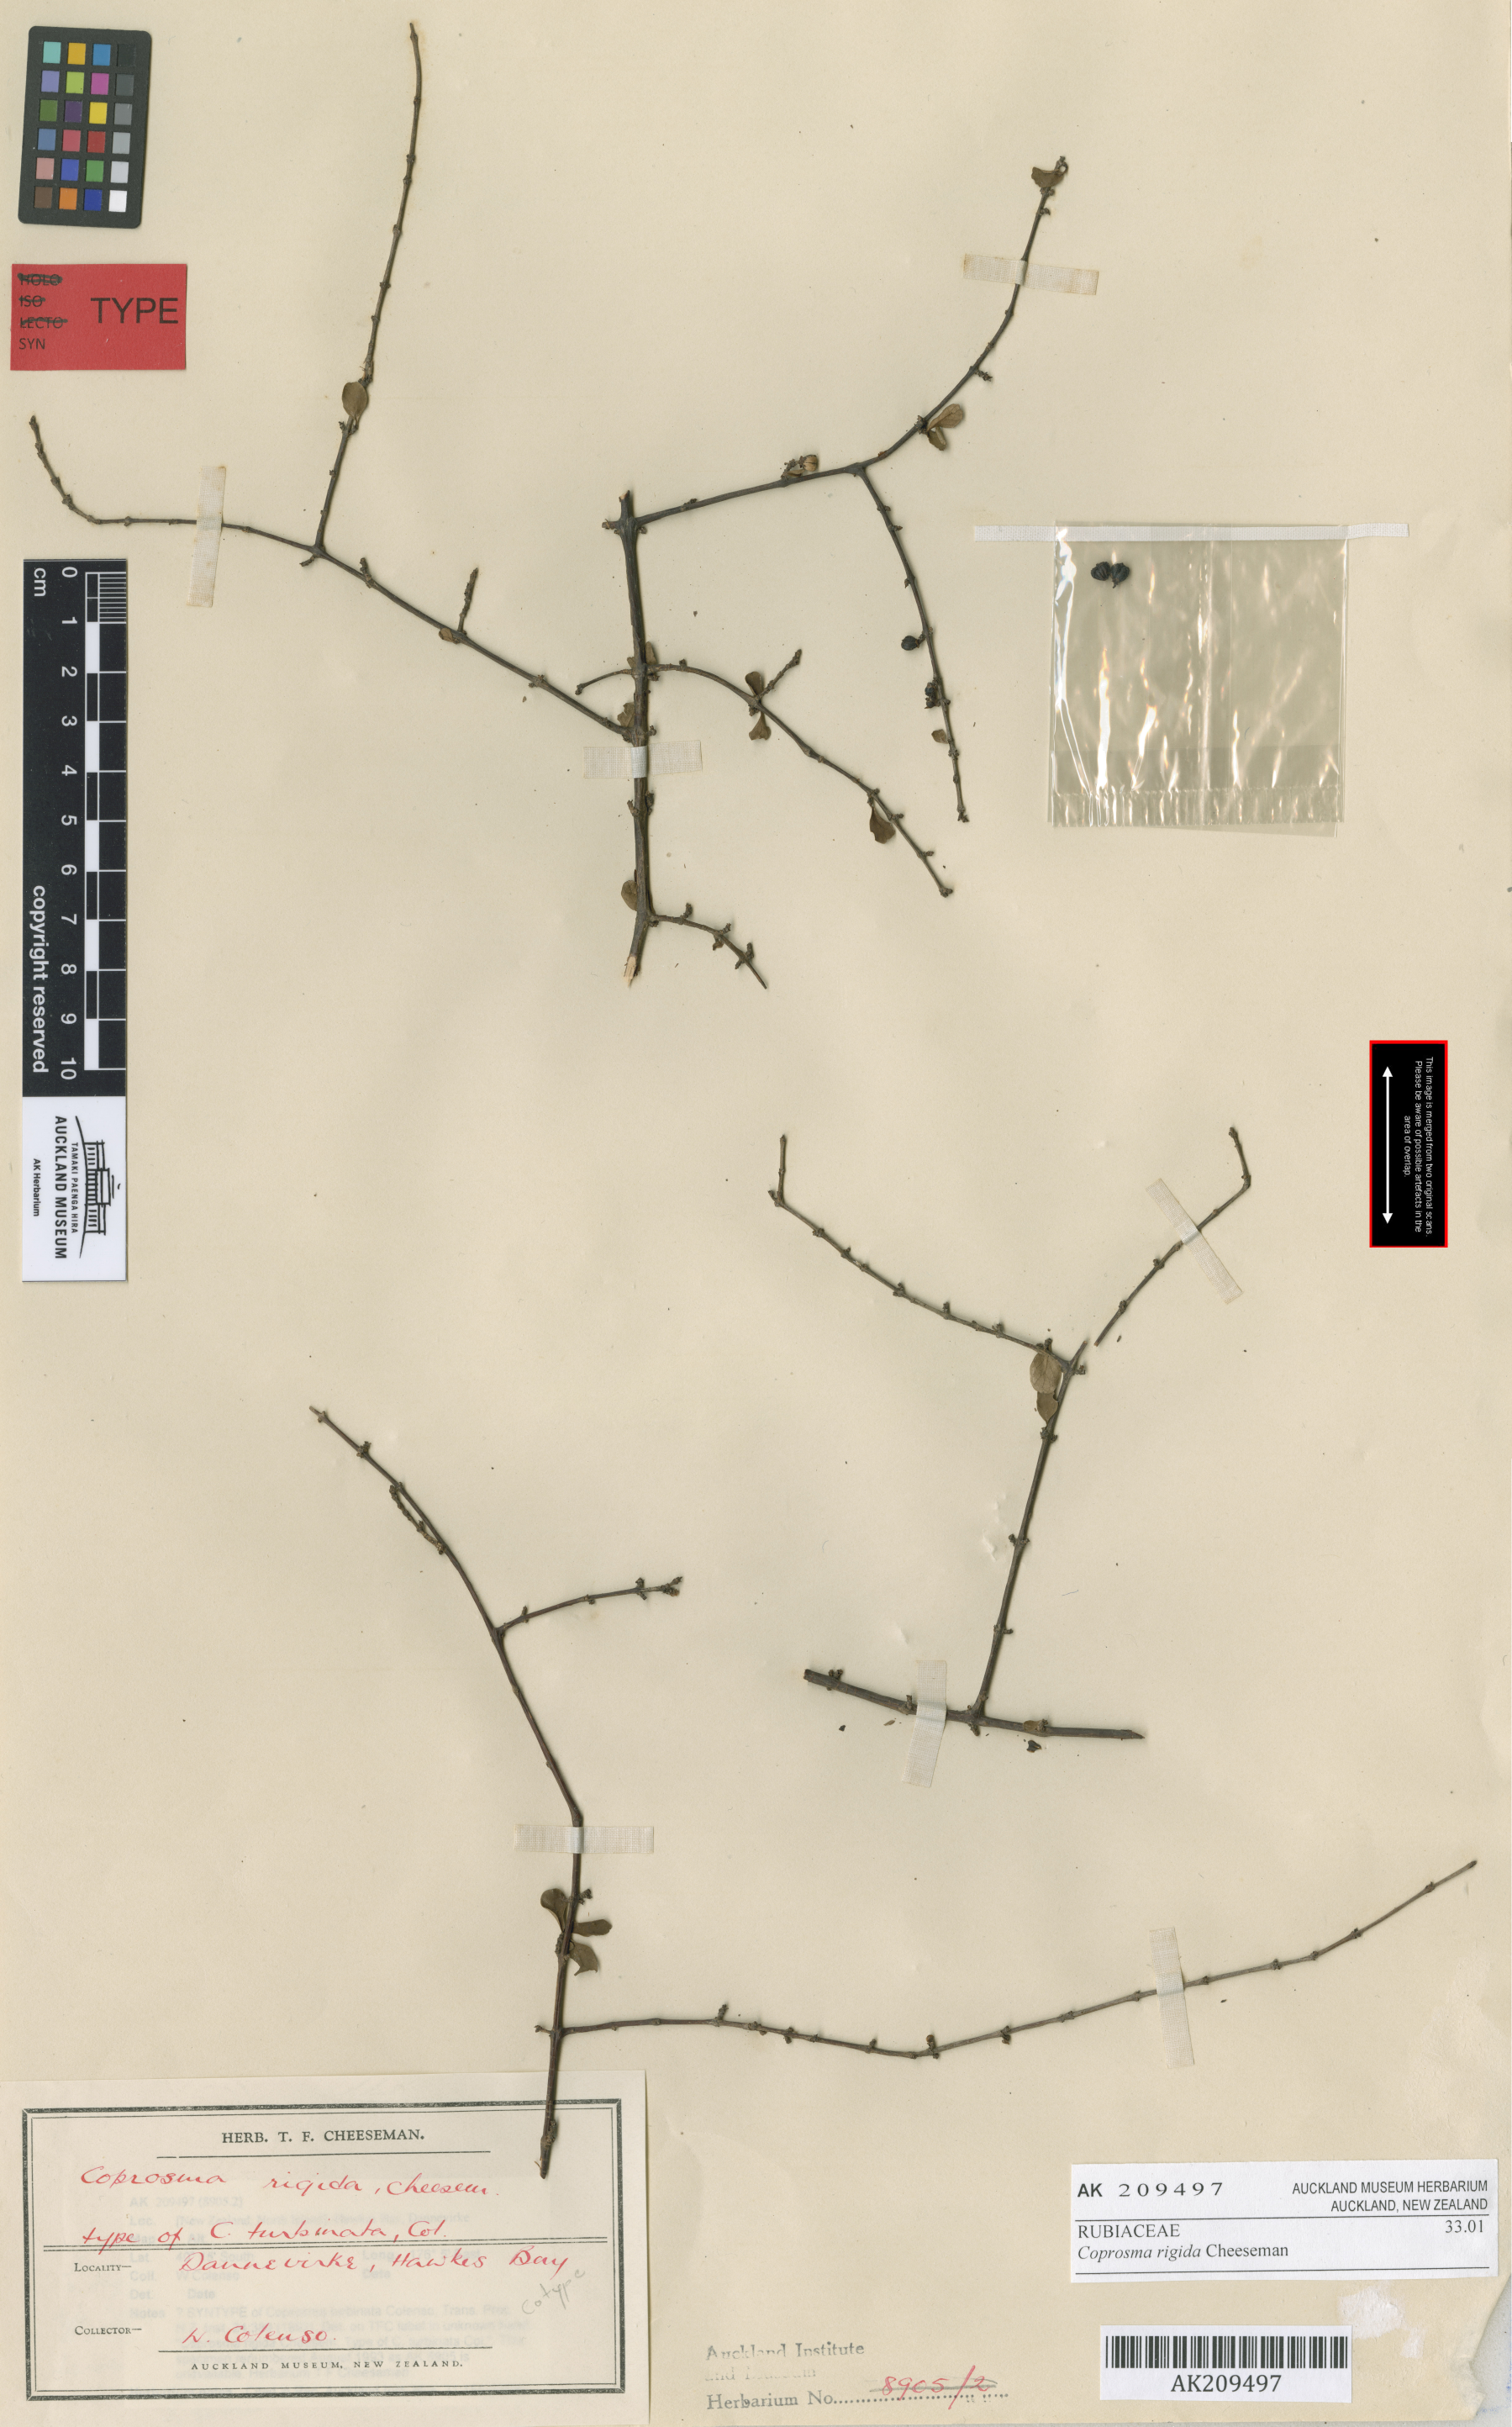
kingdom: Plantae
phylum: Tracheophyta
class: Magnoliopsida
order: Gentianales
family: Rubiaceae
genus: Coprosma
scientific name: Coprosma rigida
